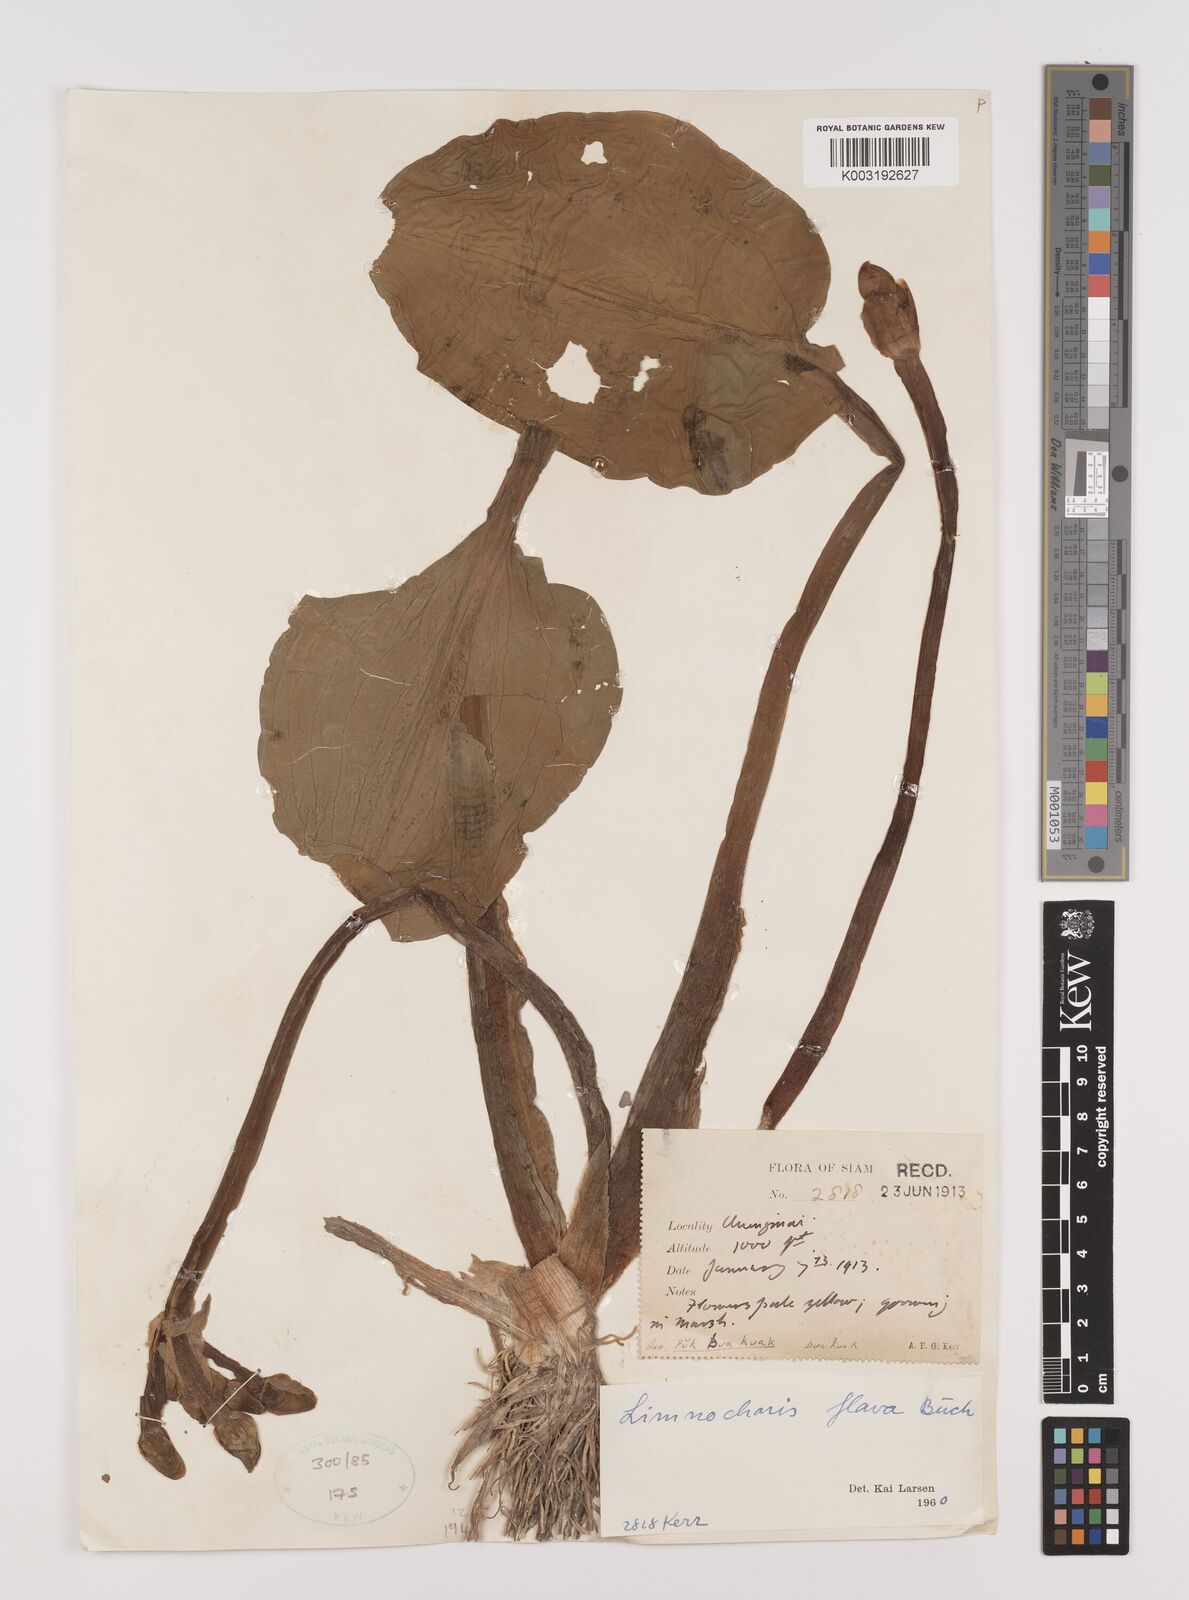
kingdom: Plantae
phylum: Tracheophyta
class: Liliopsida
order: Alismatales
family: Alismataceae
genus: Limnocharis
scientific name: Limnocharis flava
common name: Sawah-flower-rush
